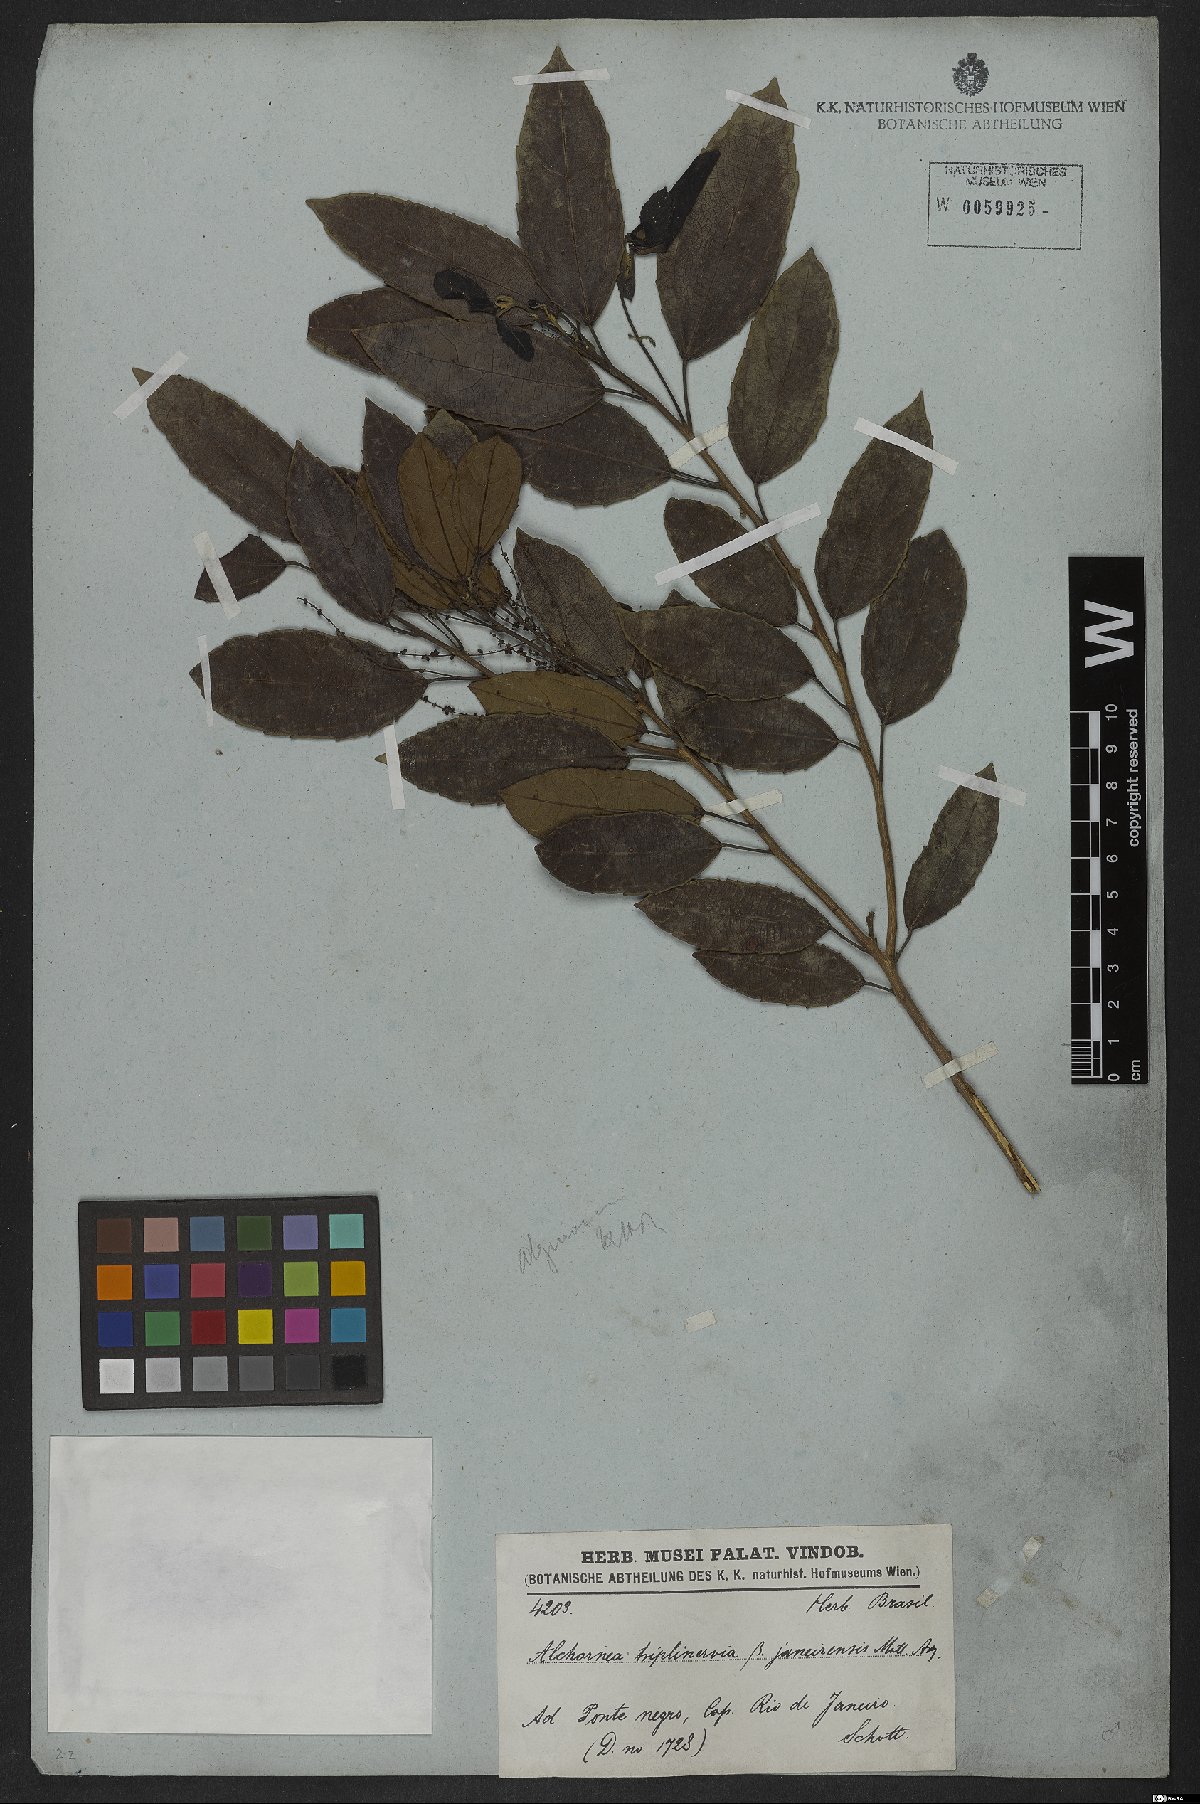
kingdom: Plantae
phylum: Tracheophyta
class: Magnoliopsida
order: Malpighiales
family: Euphorbiaceae
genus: Alchornea
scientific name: Alchornea triplinervia
